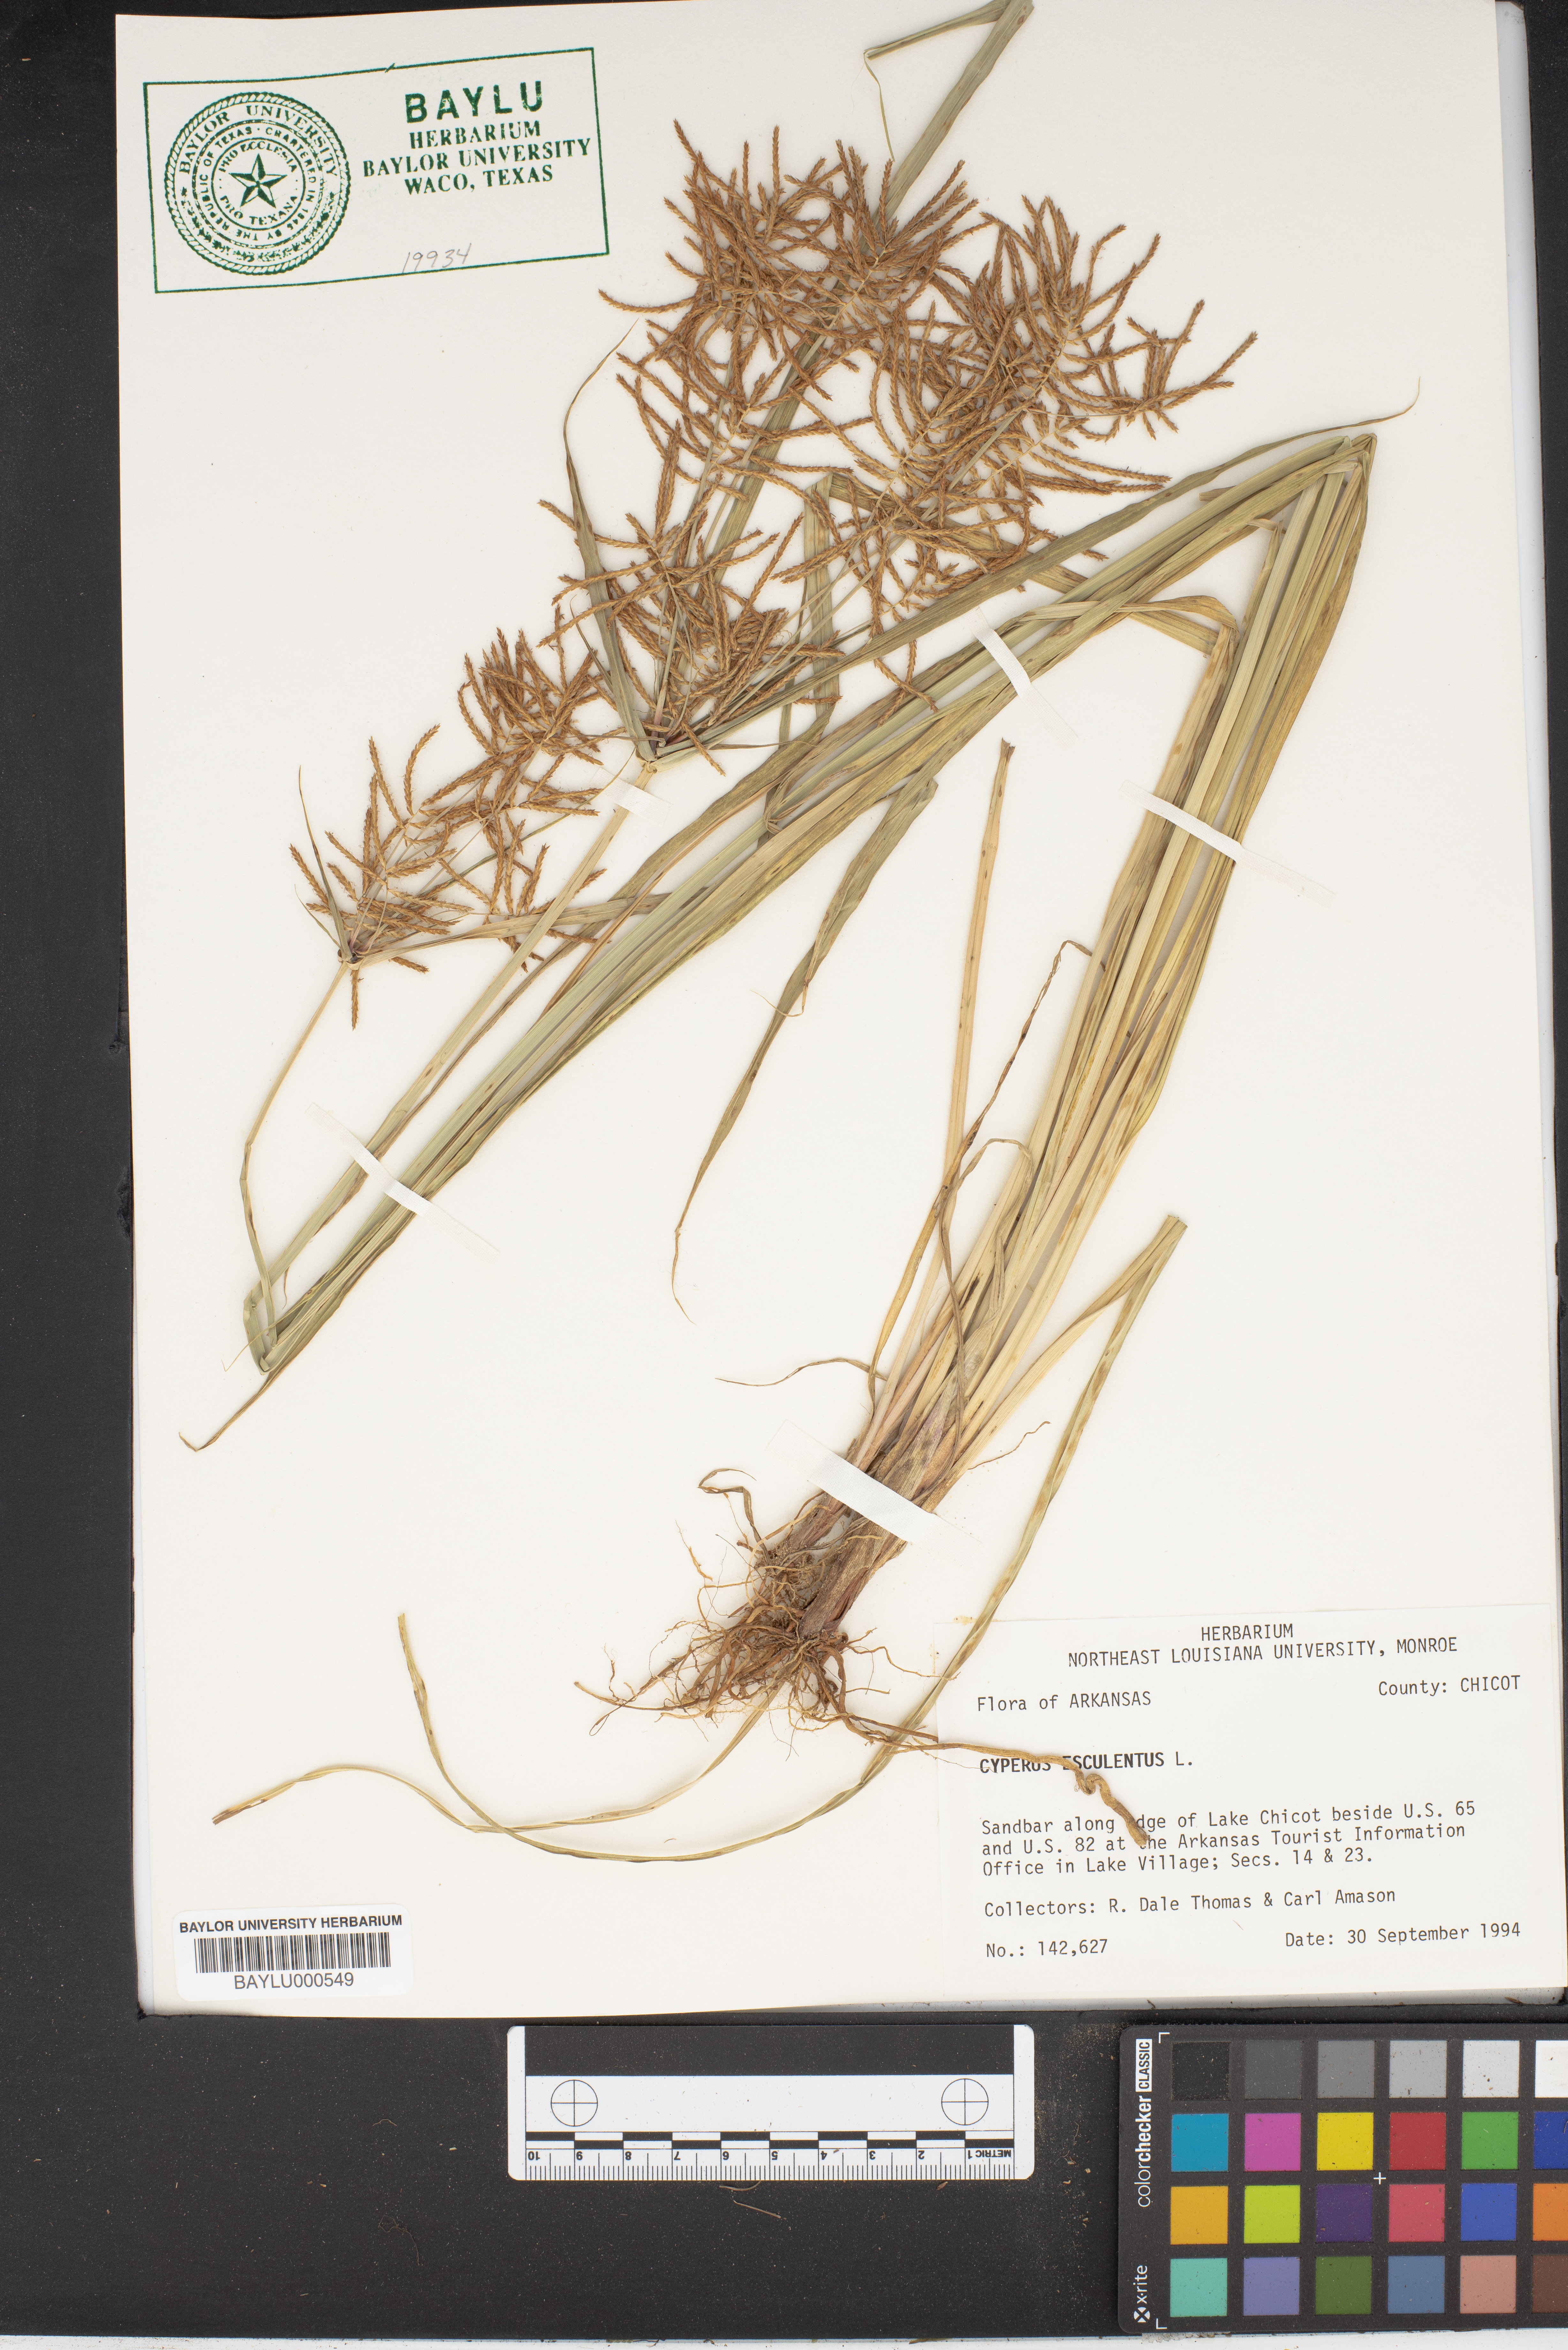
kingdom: Plantae
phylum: Tracheophyta
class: Liliopsida
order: Poales
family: Cyperaceae
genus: Cyperus
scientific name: Cyperus esculentus
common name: Yellow nutsedge
